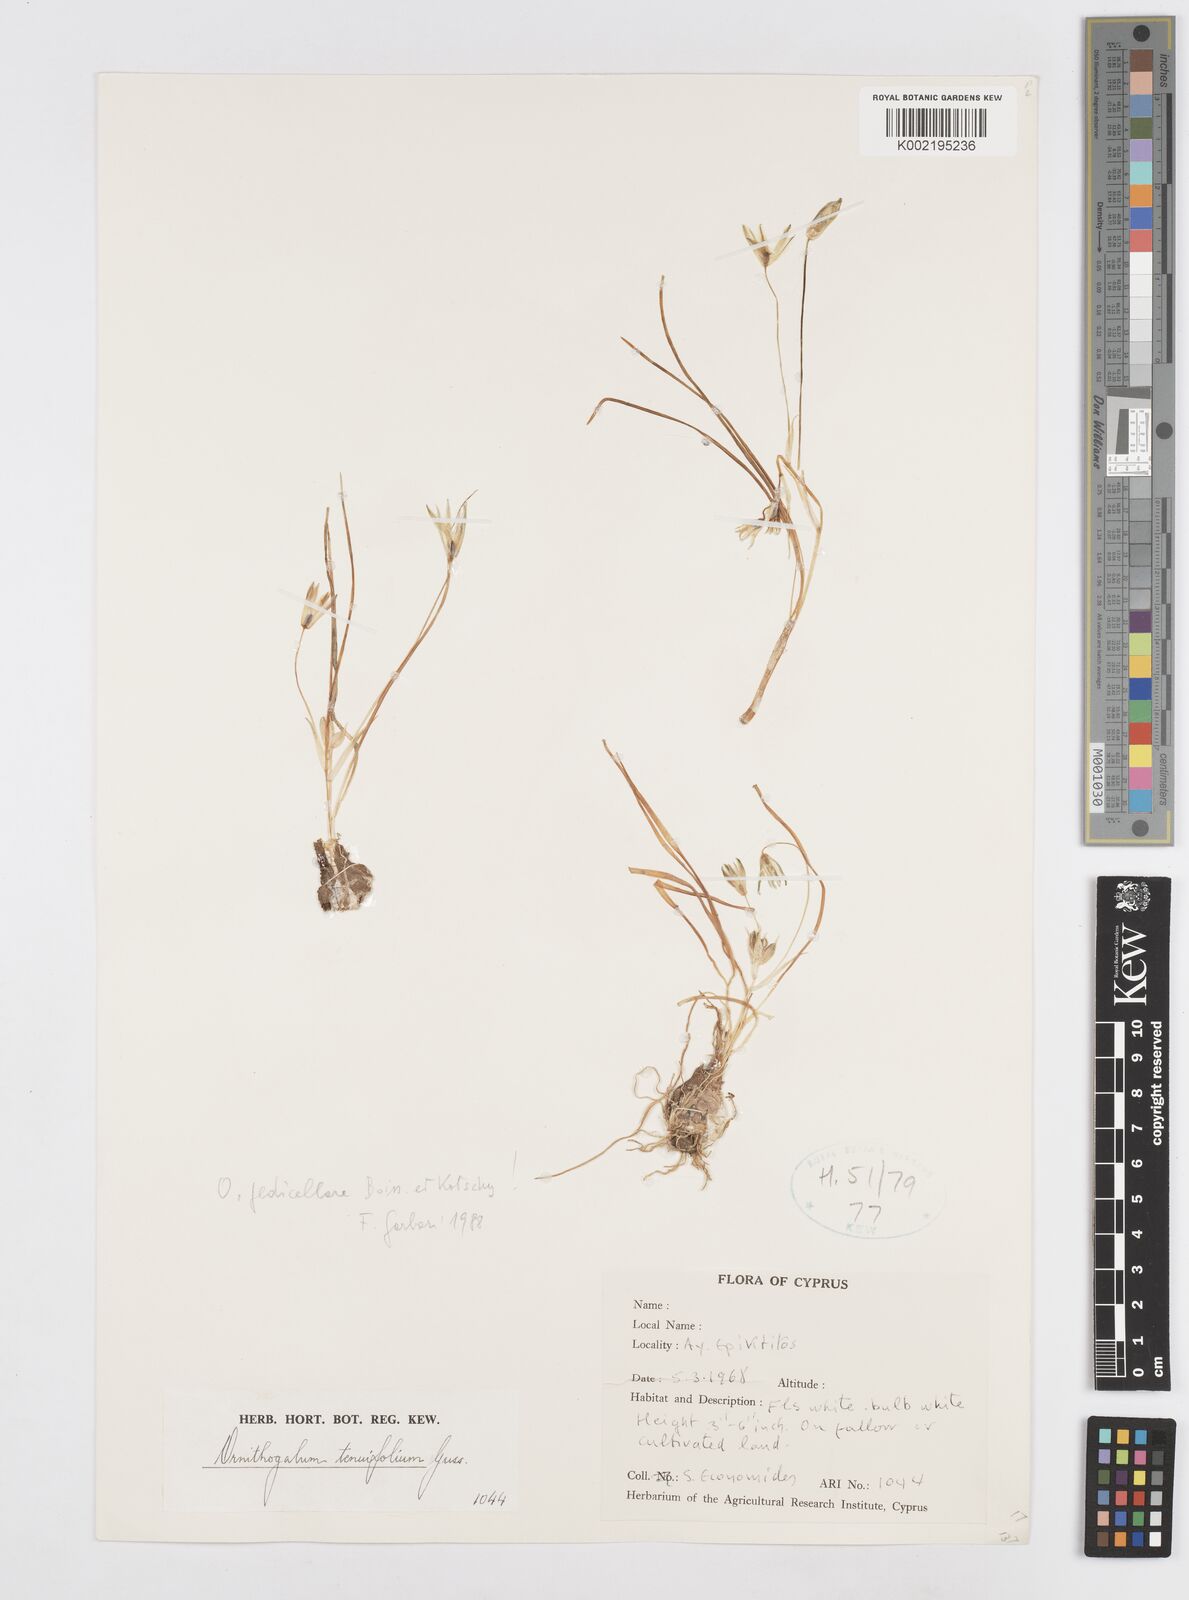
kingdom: Plantae
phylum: Tracheophyta
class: Liliopsida
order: Asparagales
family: Asparagaceae
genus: Ornithogalum
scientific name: Ornithogalum pedicellare
